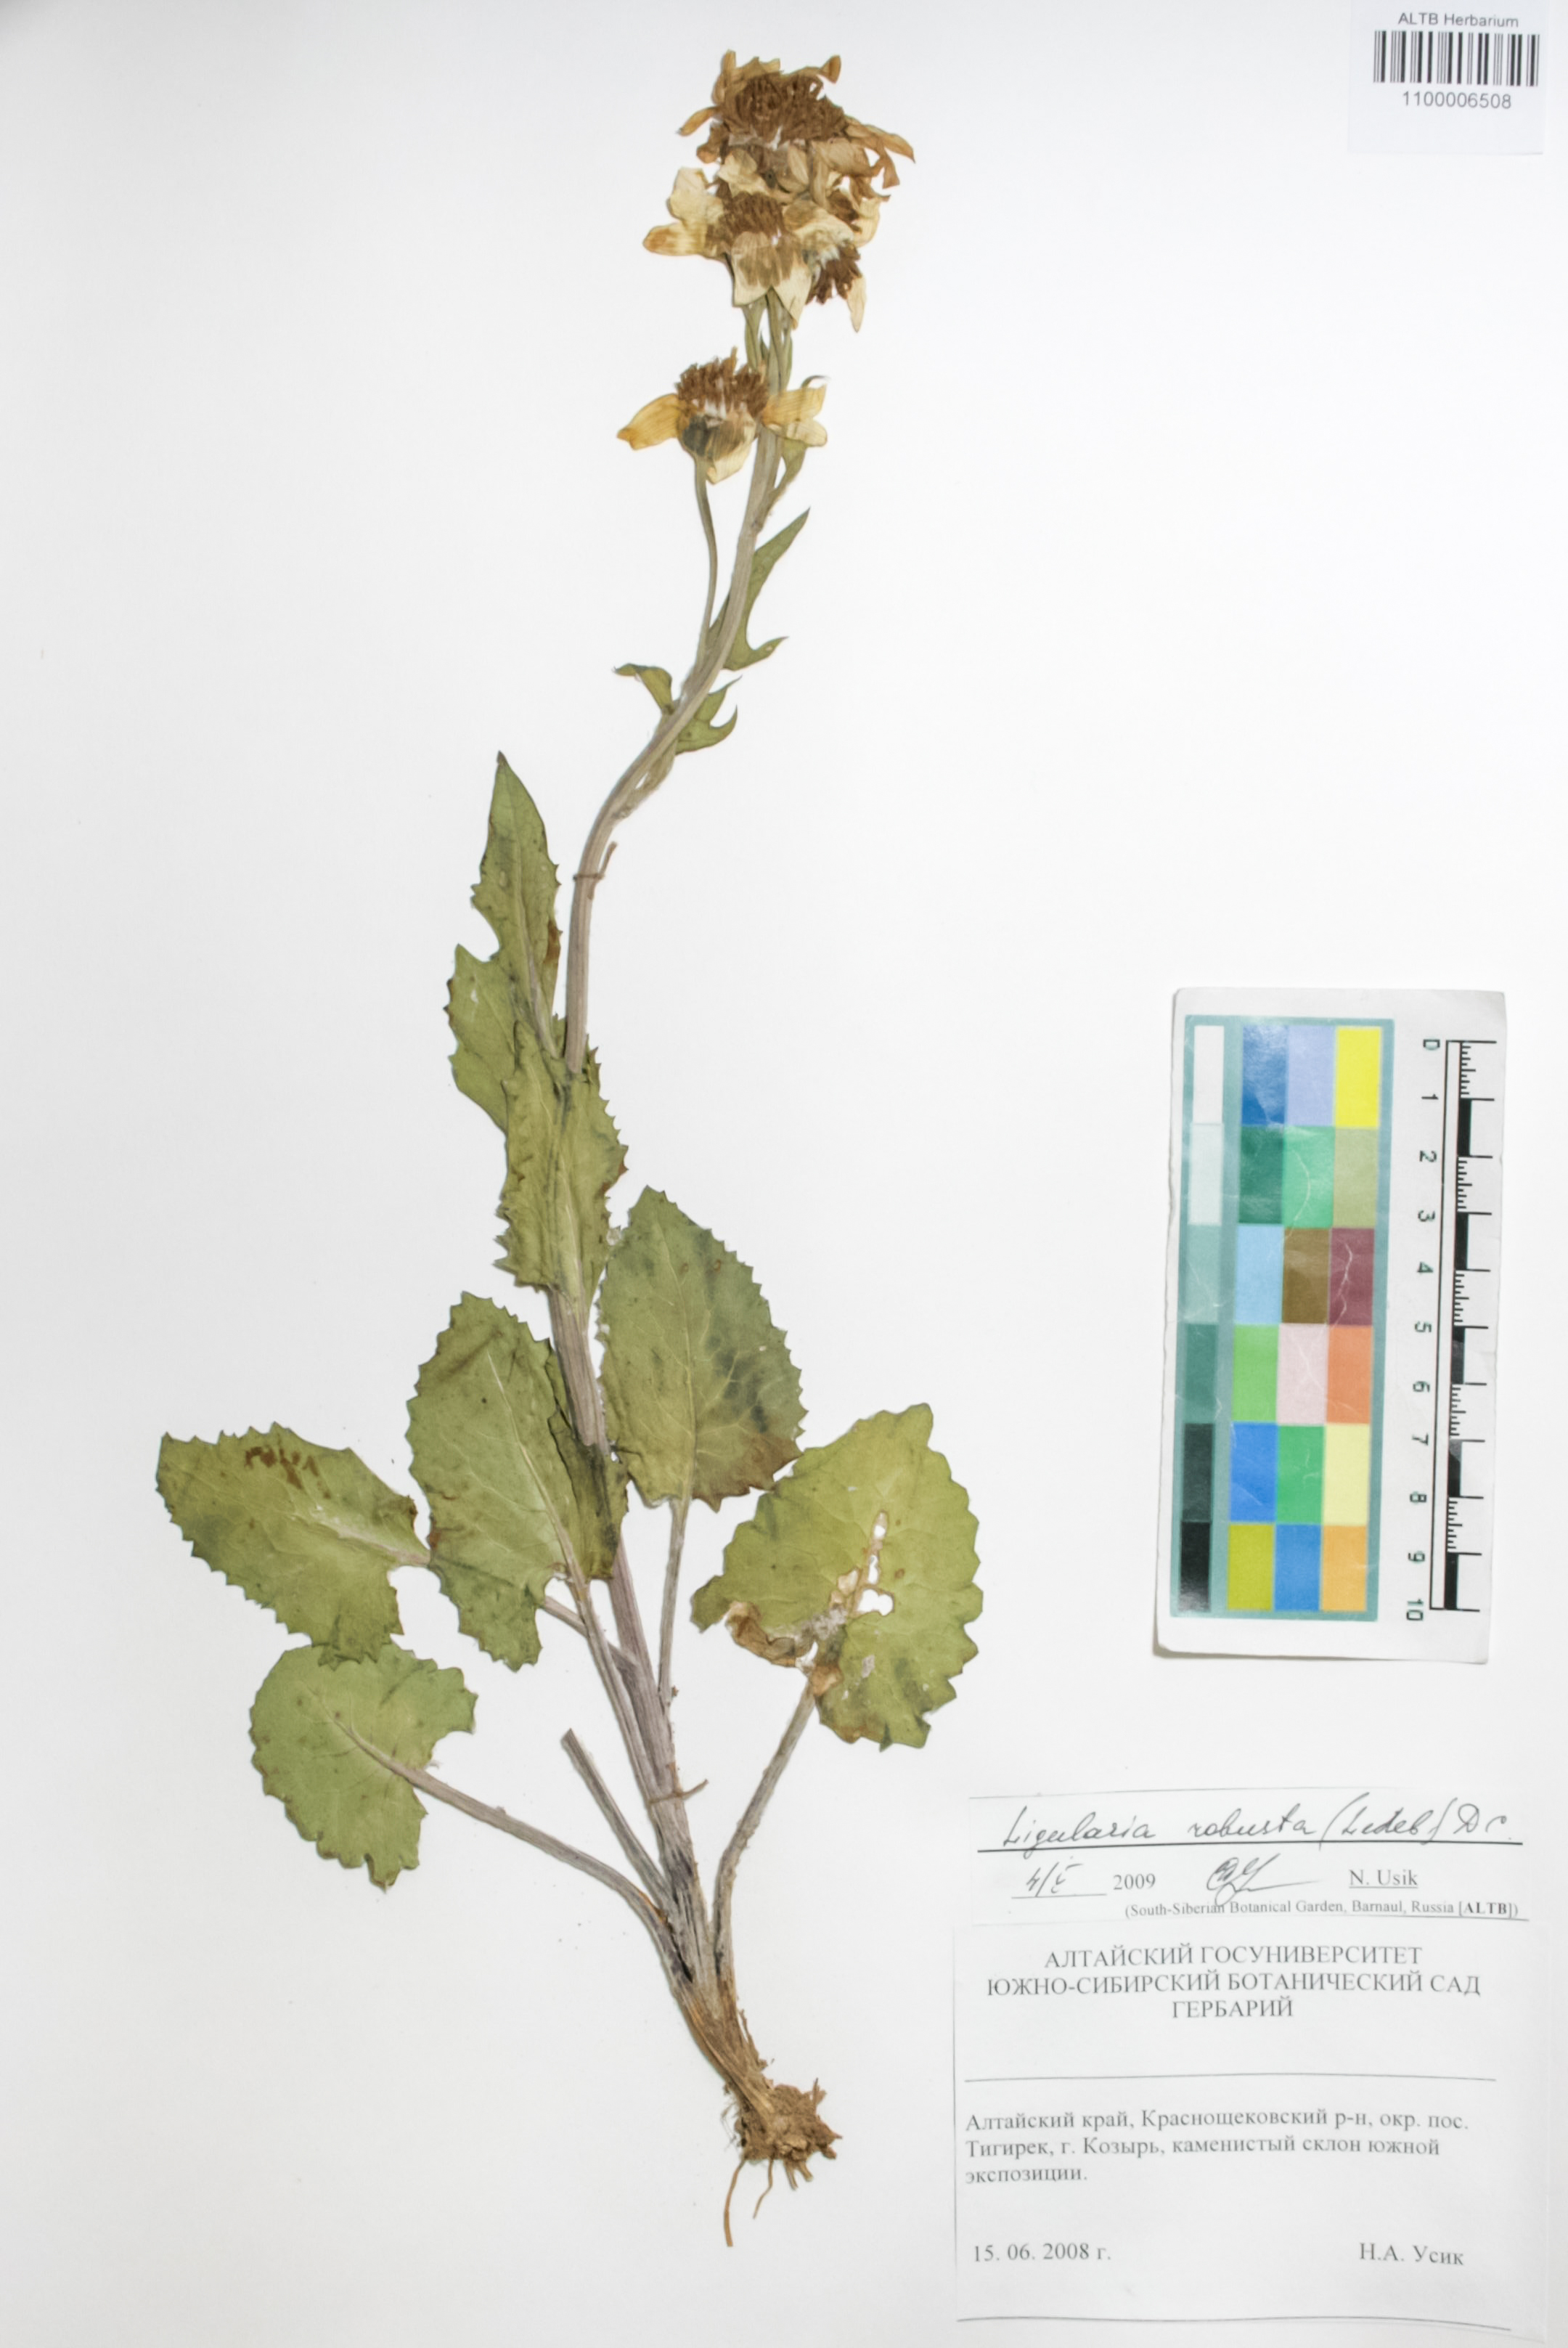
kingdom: Plantae
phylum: Tracheophyta
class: Magnoliopsida
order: Asterales
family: Asteraceae
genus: Vickifunkia
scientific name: Vickifunkia robusta
